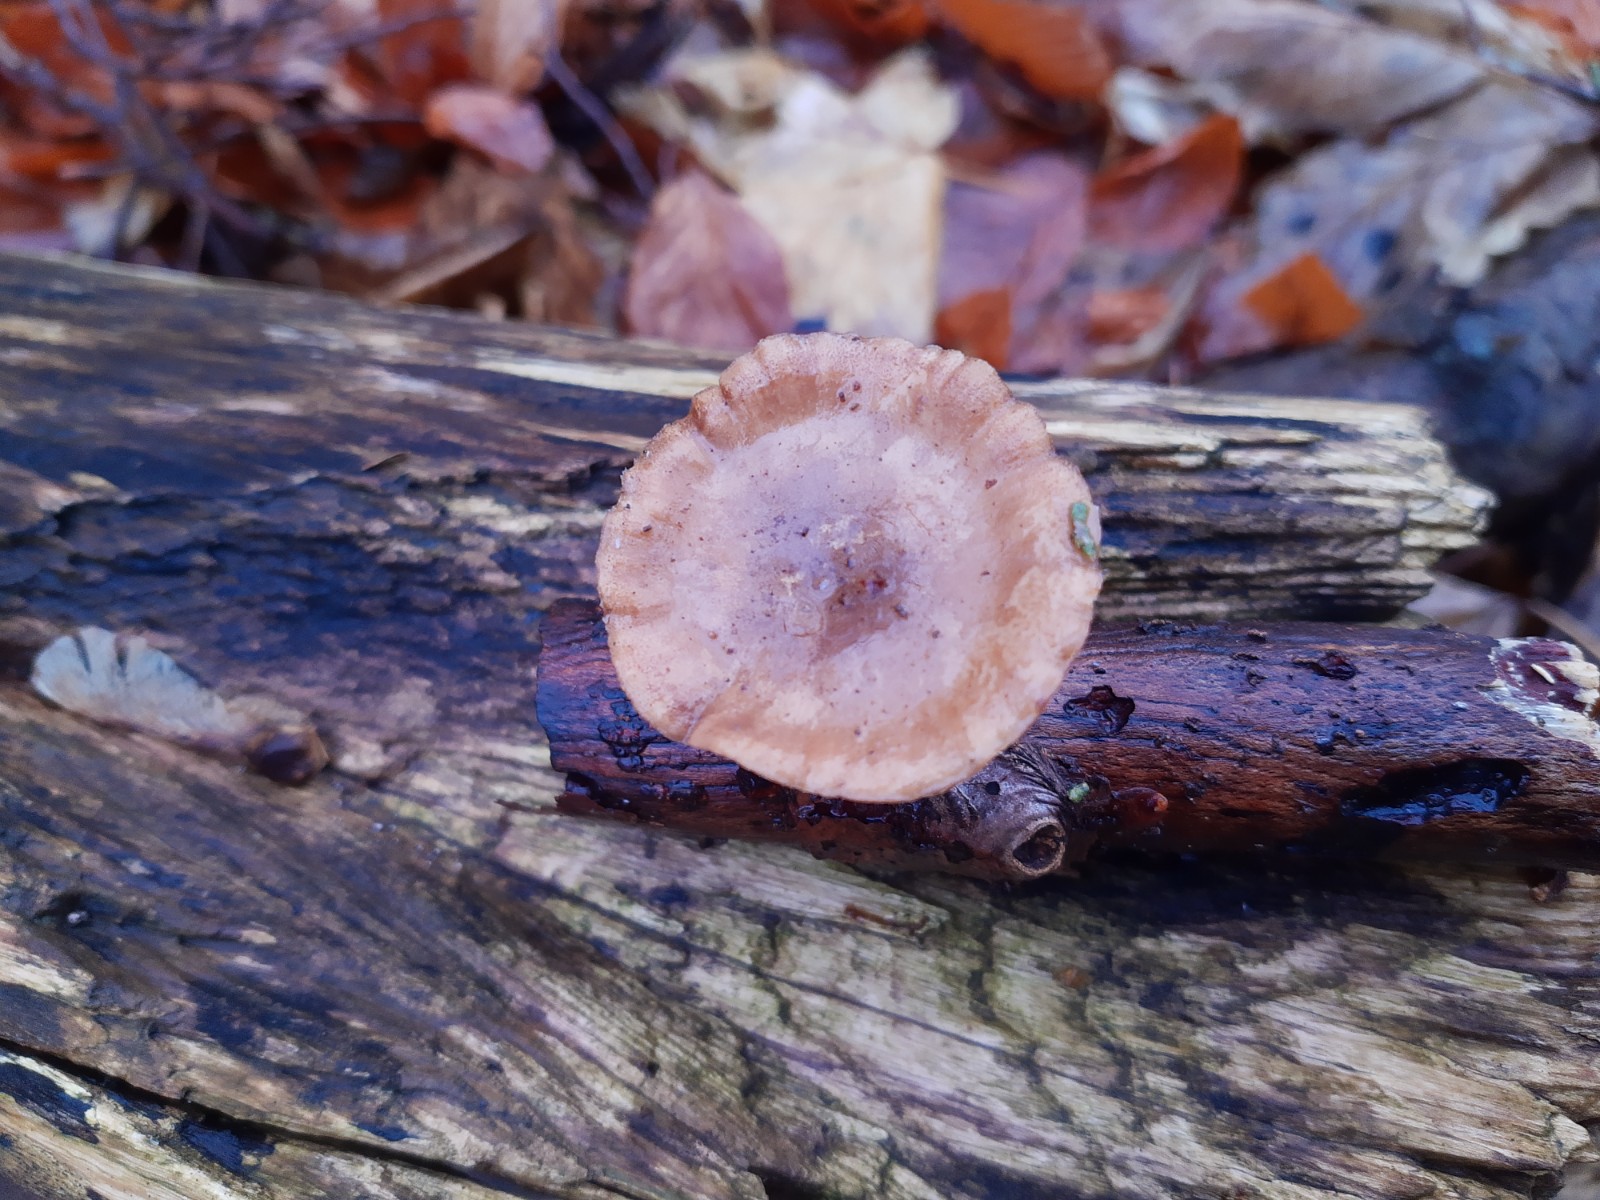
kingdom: Fungi
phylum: Basidiomycota
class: Agaricomycetes
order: Polyporales
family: Polyporaceae
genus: Lentinus
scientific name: Lentinus brumalis
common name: vinter-stilkporesvamp
